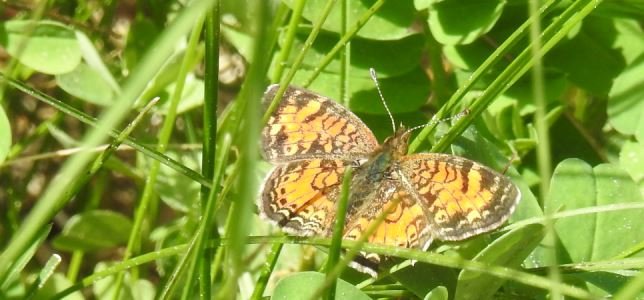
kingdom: Animalia
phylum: Arthropoda
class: Insecta
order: Lepidoptera
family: Nymphalidae
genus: Phyciodes
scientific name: Phyciodes tharos
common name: Pearl Crescent
